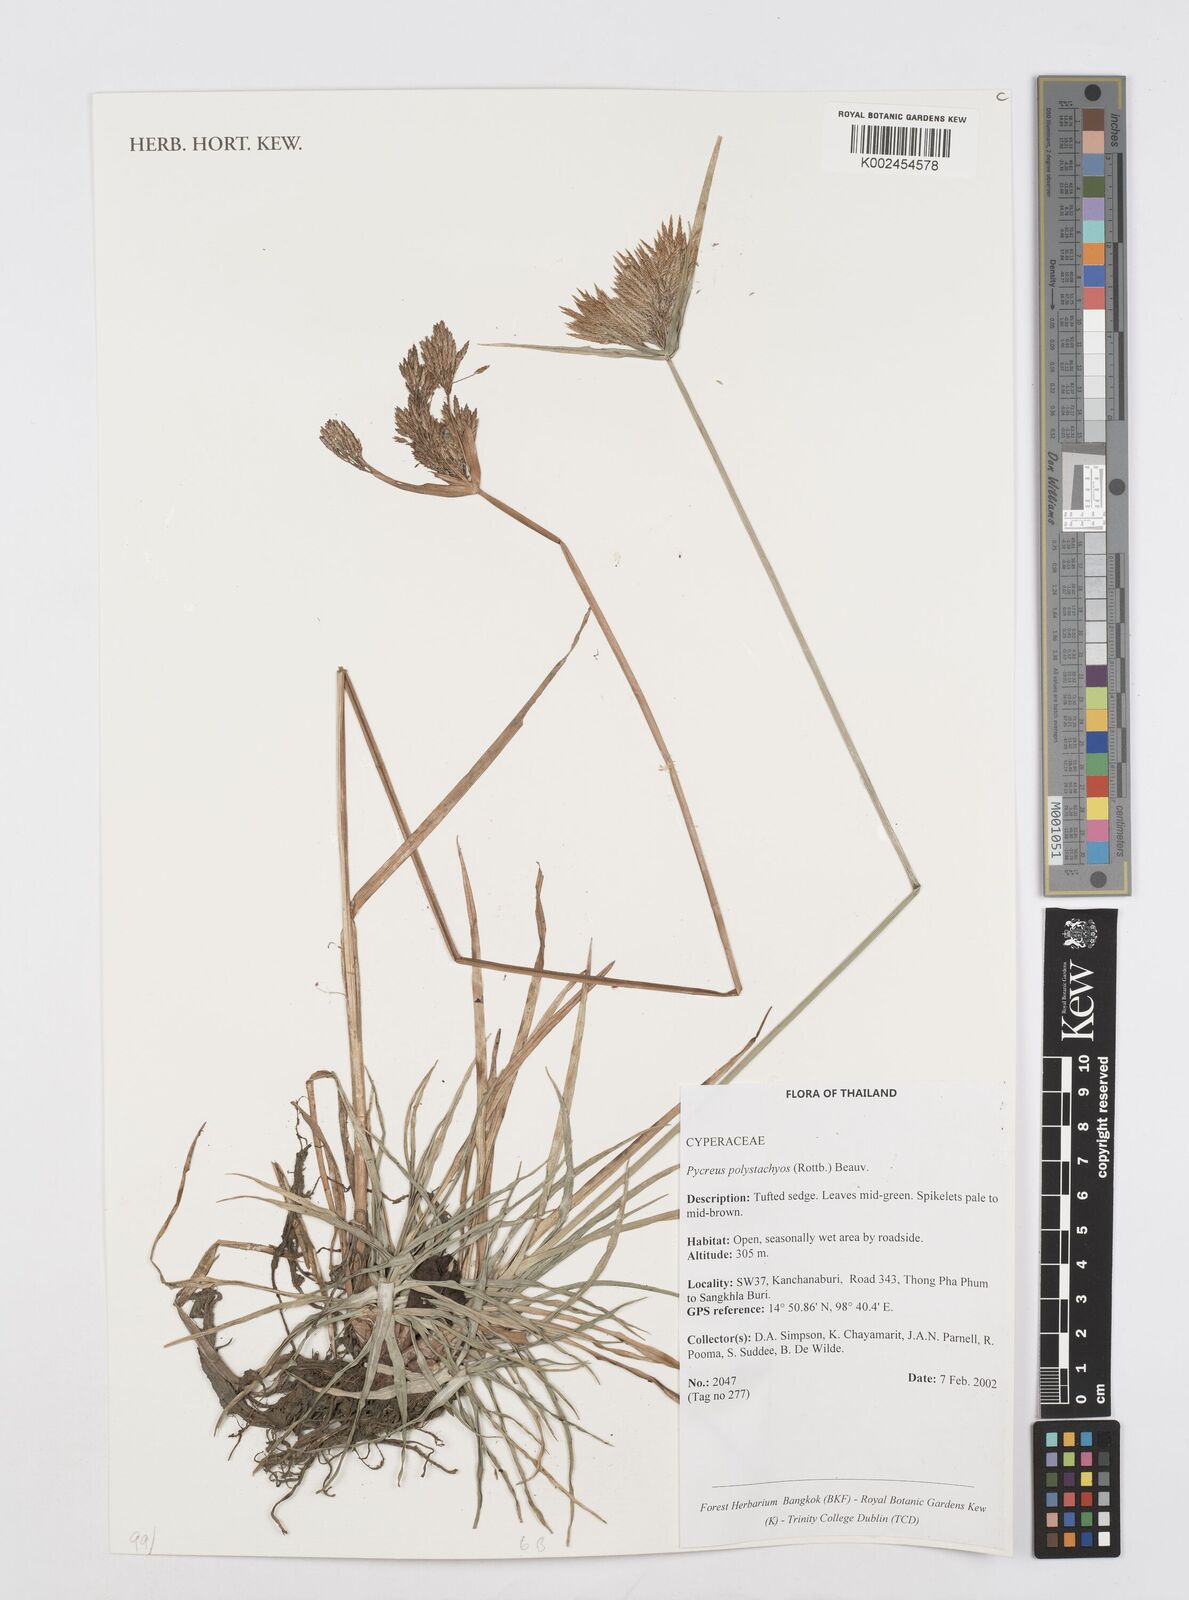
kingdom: Plantae
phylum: Tracheophyta
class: Liliopsida
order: Poales
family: Cyperaceae
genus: Cyperus
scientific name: Cyperus polystachyos
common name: Bunchy flat sedge
